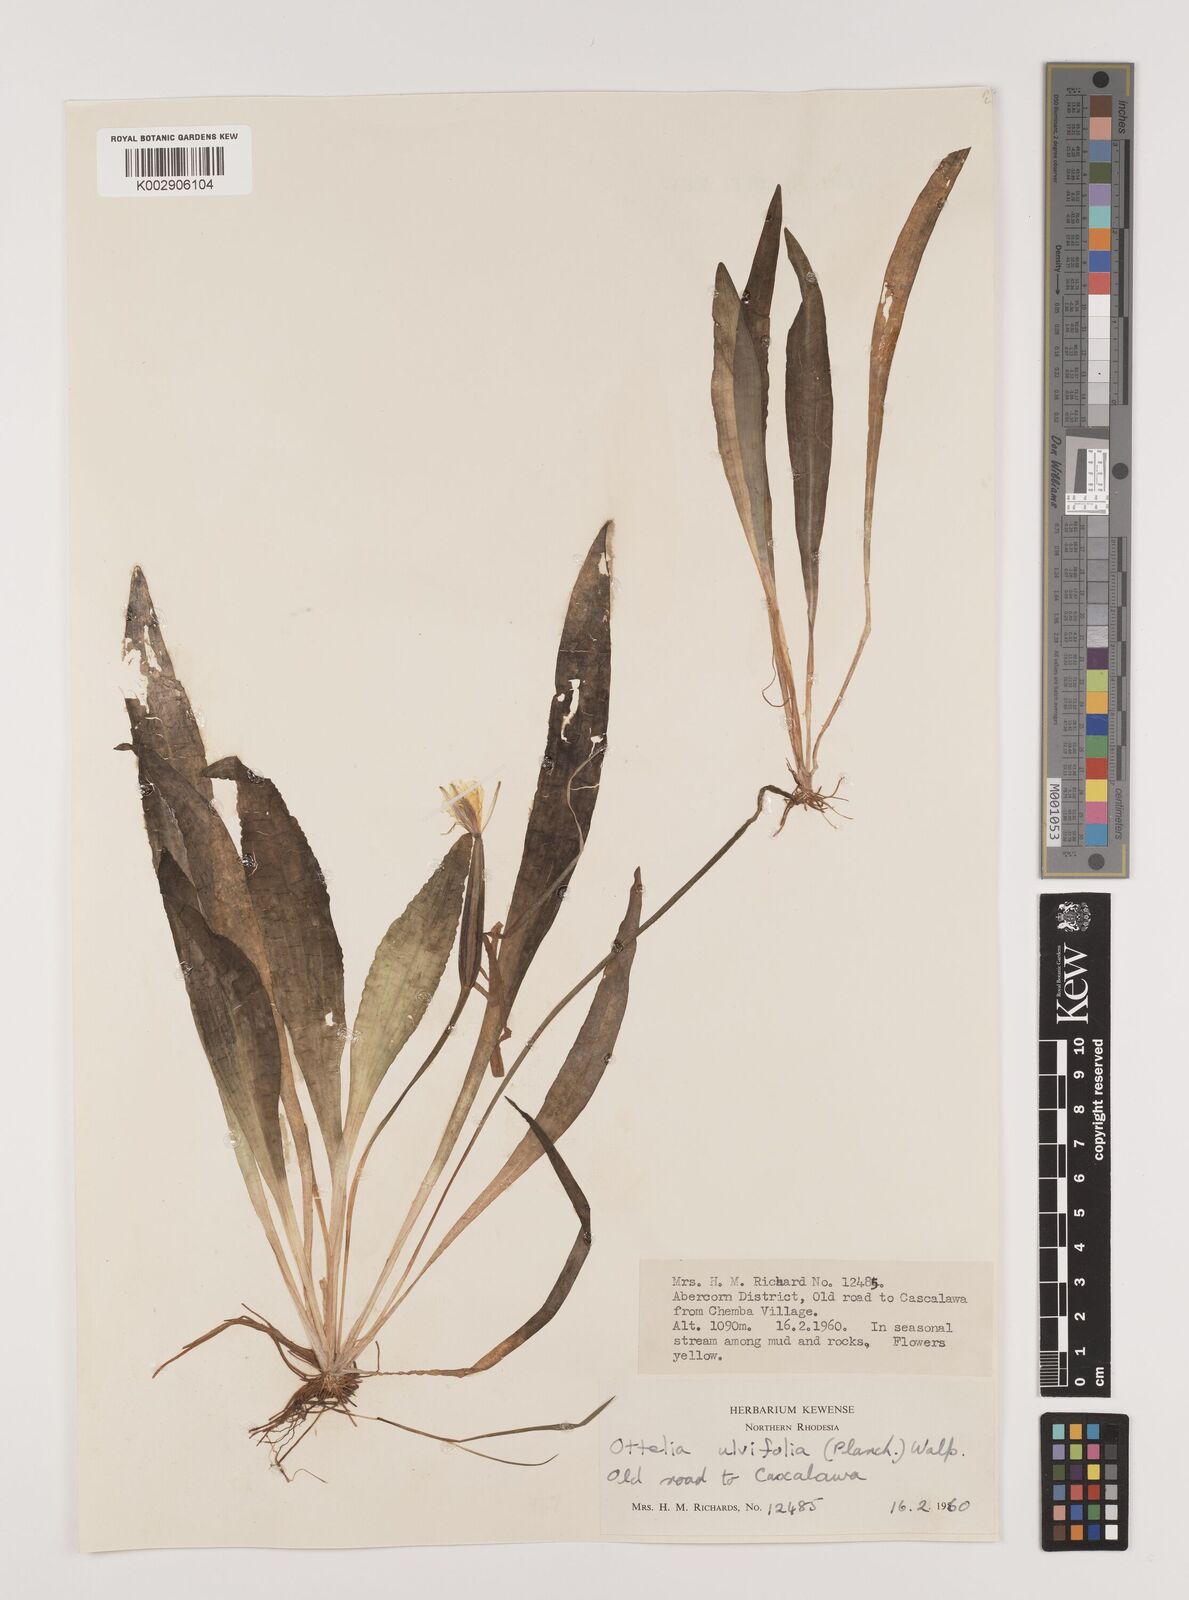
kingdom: Plantae
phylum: Tracheophyta
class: Liliopsida
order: Alismatales
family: Hydrocharitaceae
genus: Ottelia
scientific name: Ottelia ulvifolia
